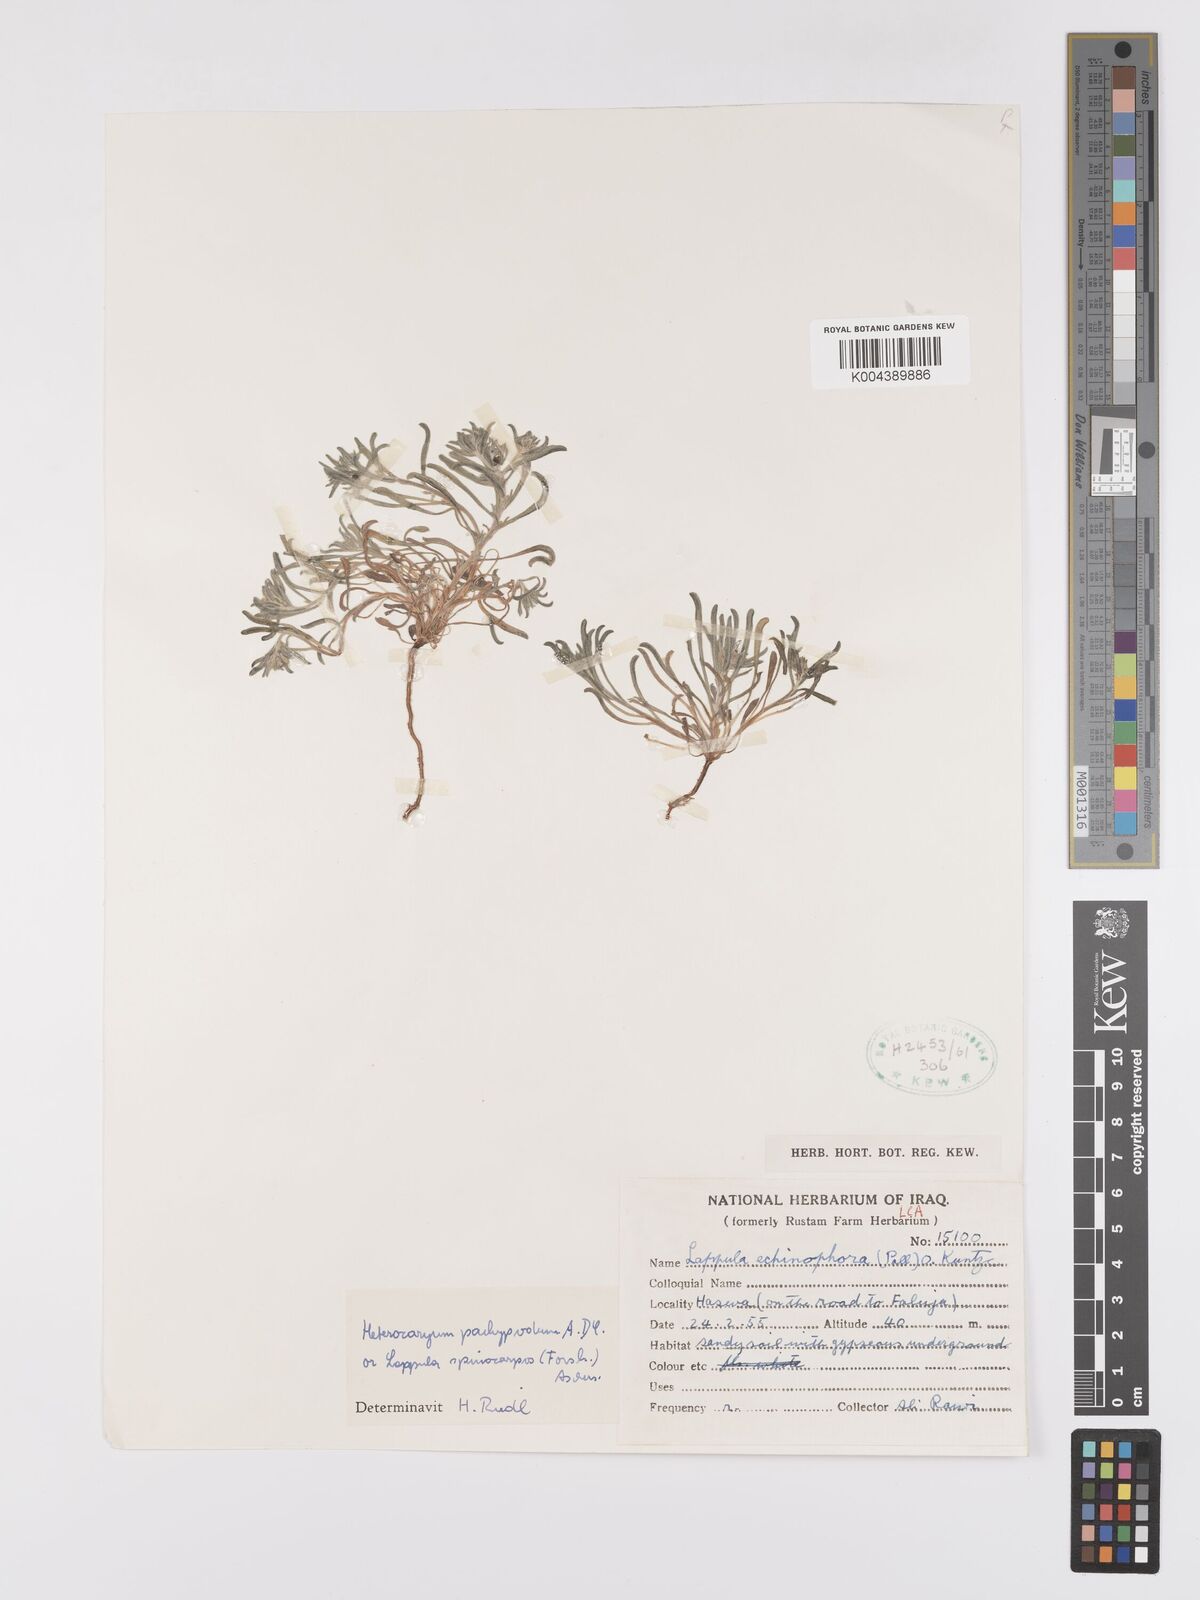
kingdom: Plantae
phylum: Tracheophyta
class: Magnoliopsida
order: Boraginales
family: Boraginaceae
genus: Lappula
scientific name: Lappula
